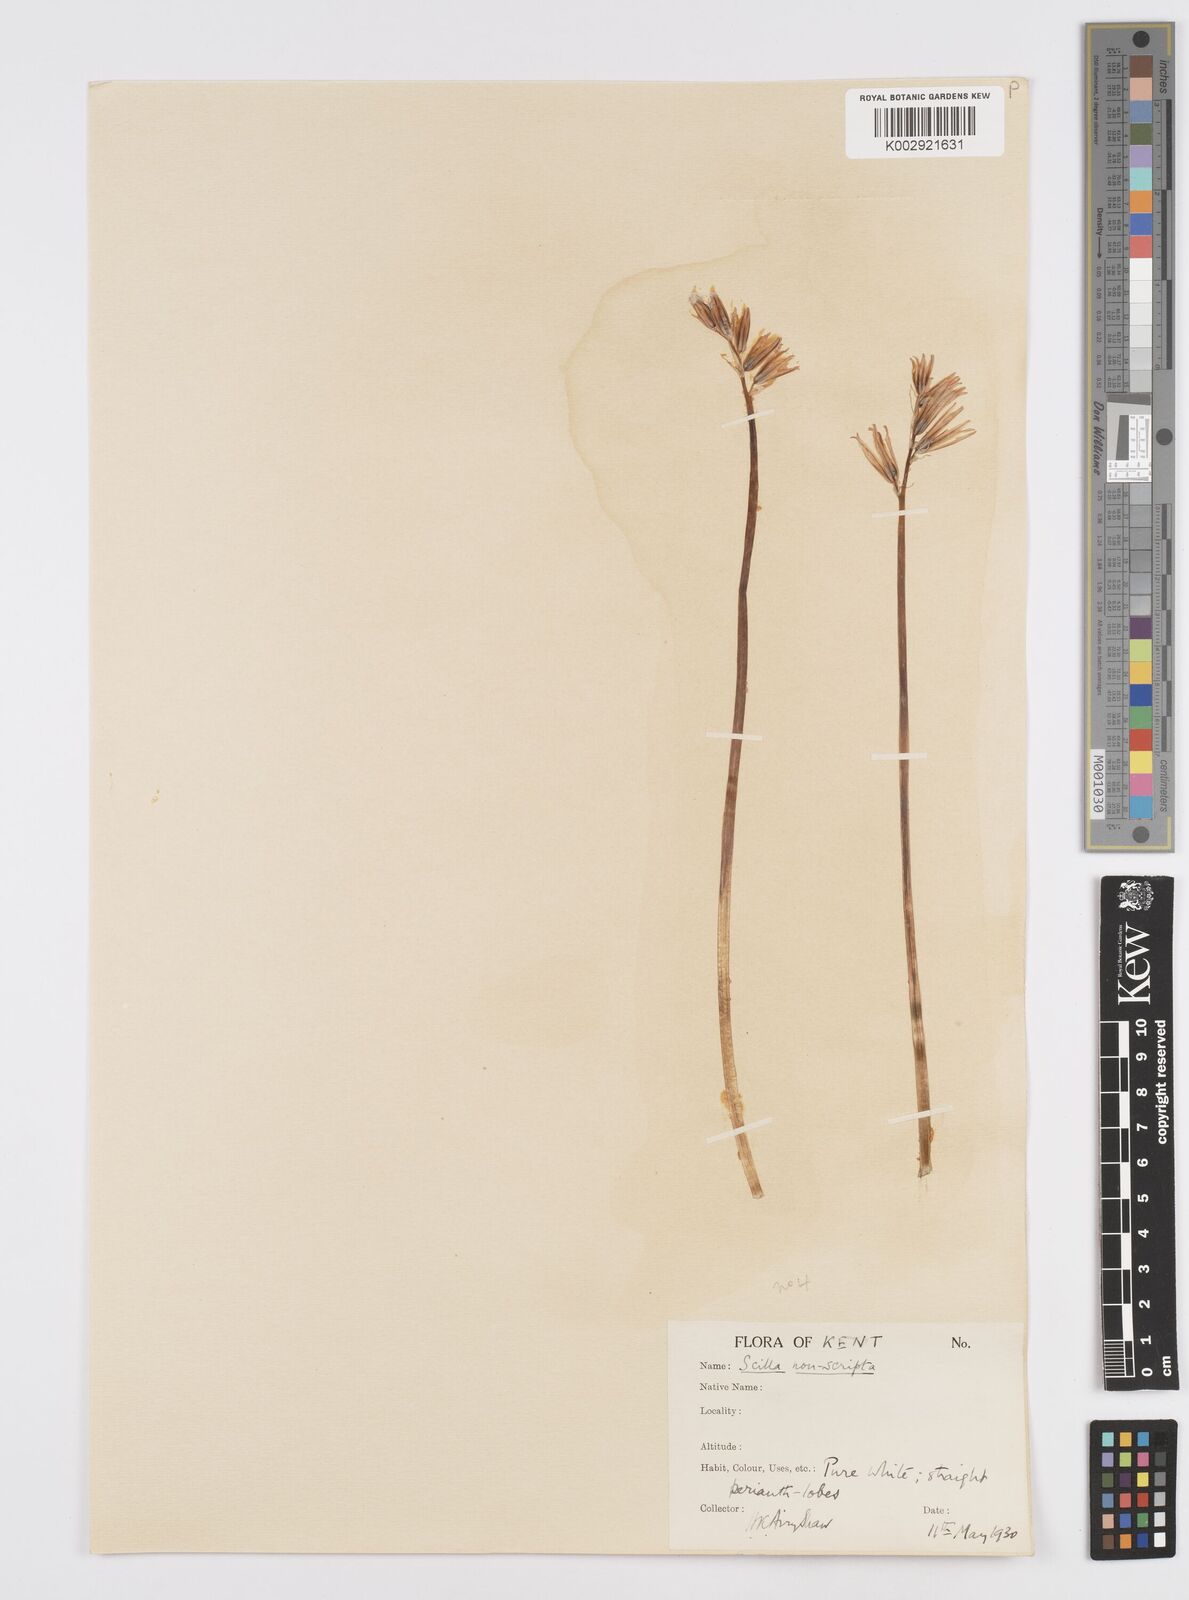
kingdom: Plantae
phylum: Tracheophyta
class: Liliopsida
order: Asparagales
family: Asparagaceae
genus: Hyacinthoides
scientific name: Hyacinthoides non-scripta
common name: Bluebell
